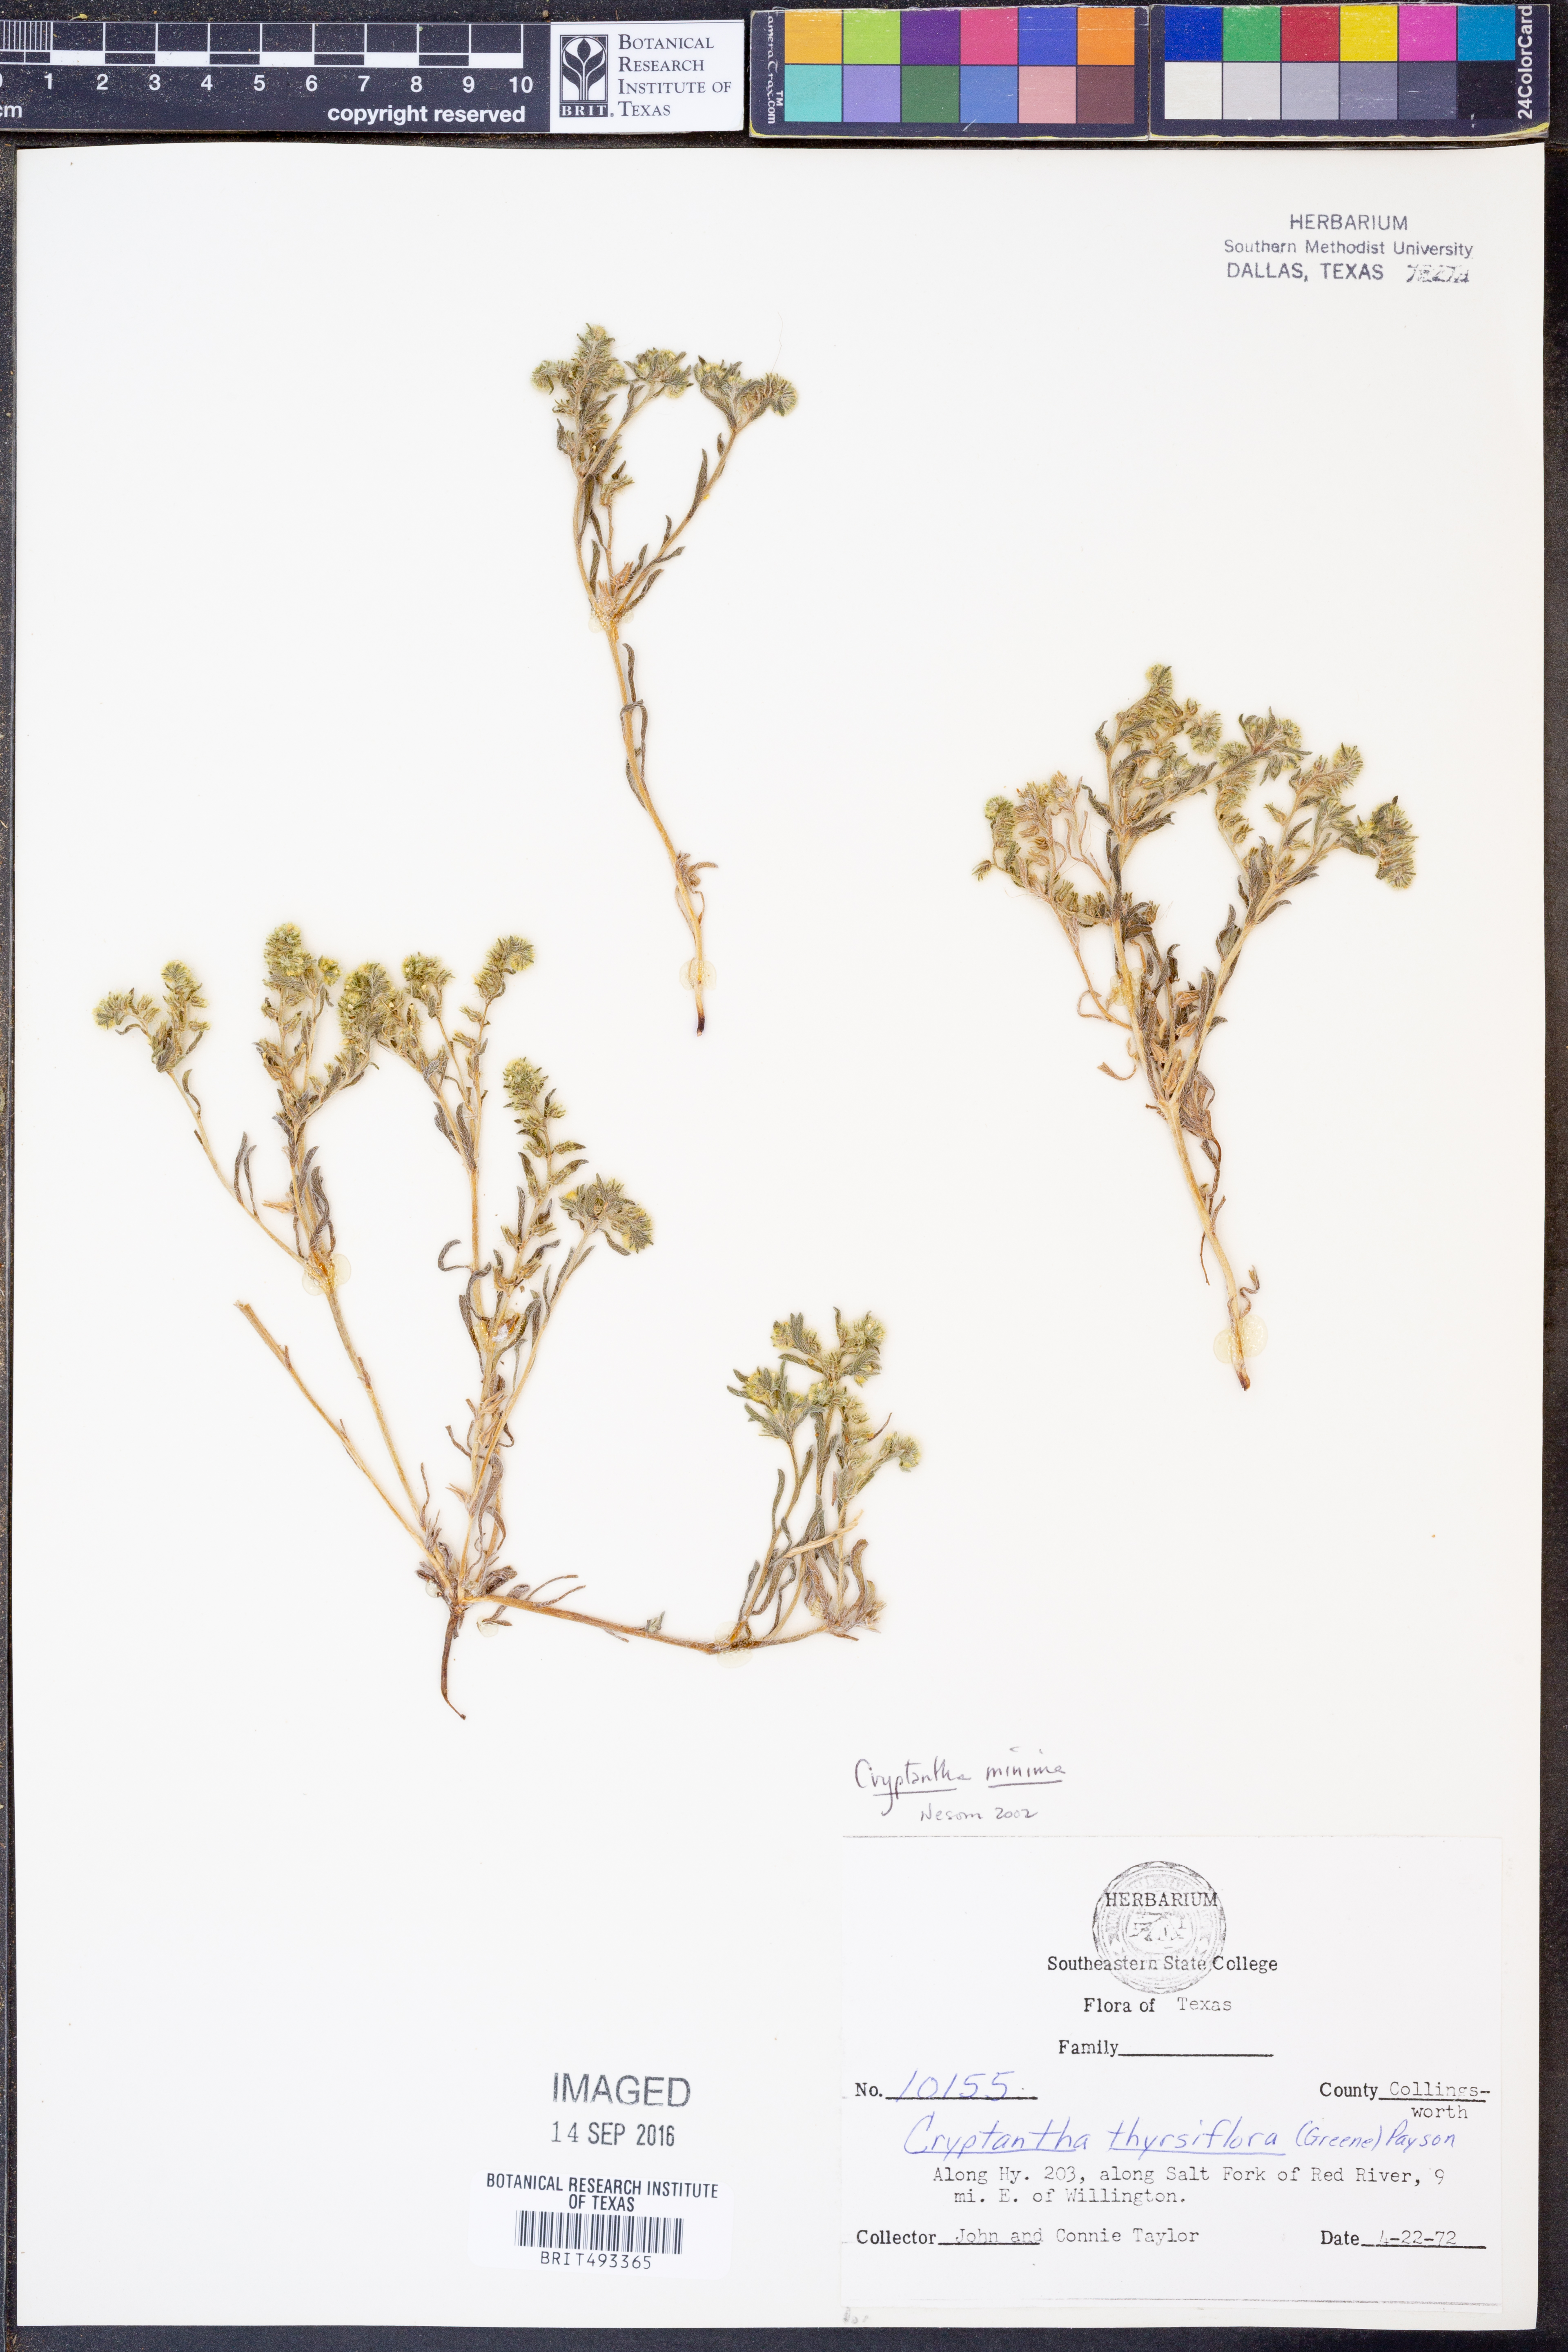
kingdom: Plantae
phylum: Tracheophyta
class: Magnoliopsida
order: Boraginales
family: Boraginaceae
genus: Cryptantha
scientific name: Cryptantha minima
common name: Little cat's-eye
